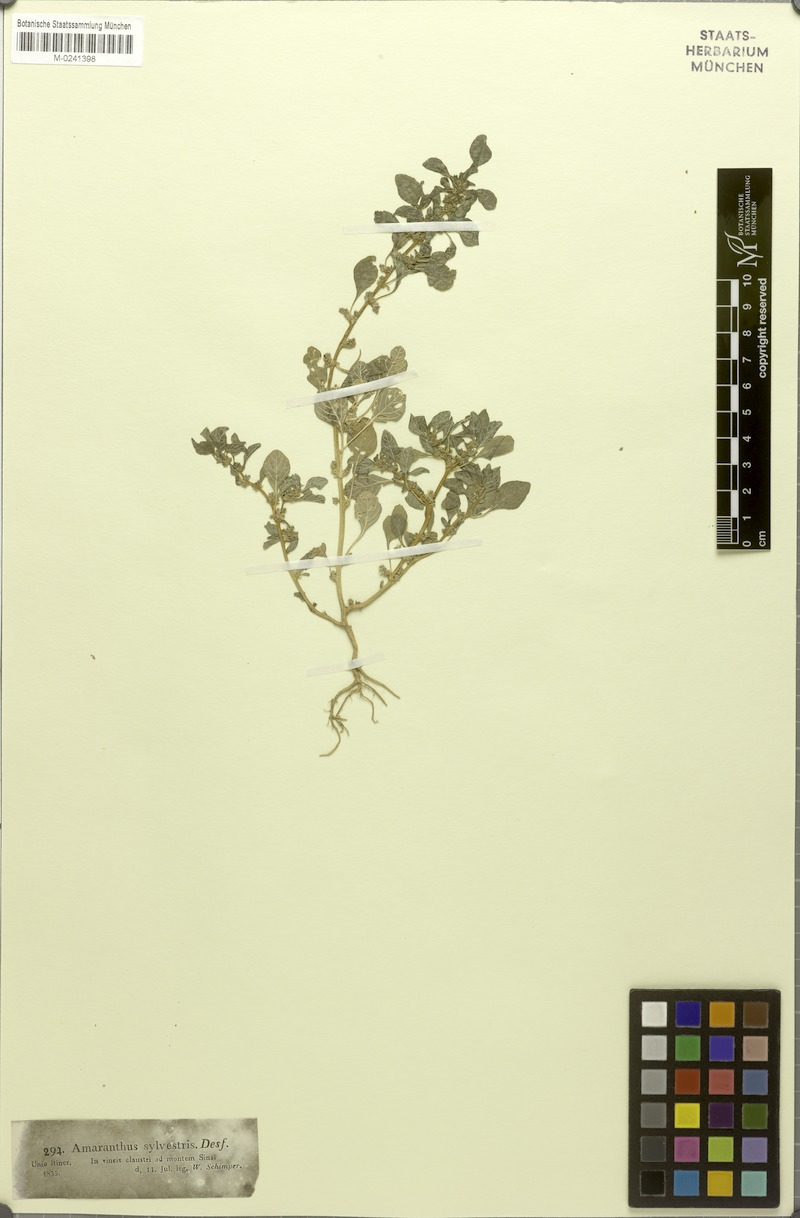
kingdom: Plantae
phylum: Tracheophyta
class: Magnoliopsida
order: Caryophyllales
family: Amaranthaceae
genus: Amaranthus
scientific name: Amaranthus graecizans
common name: Mediterranean amaranth
